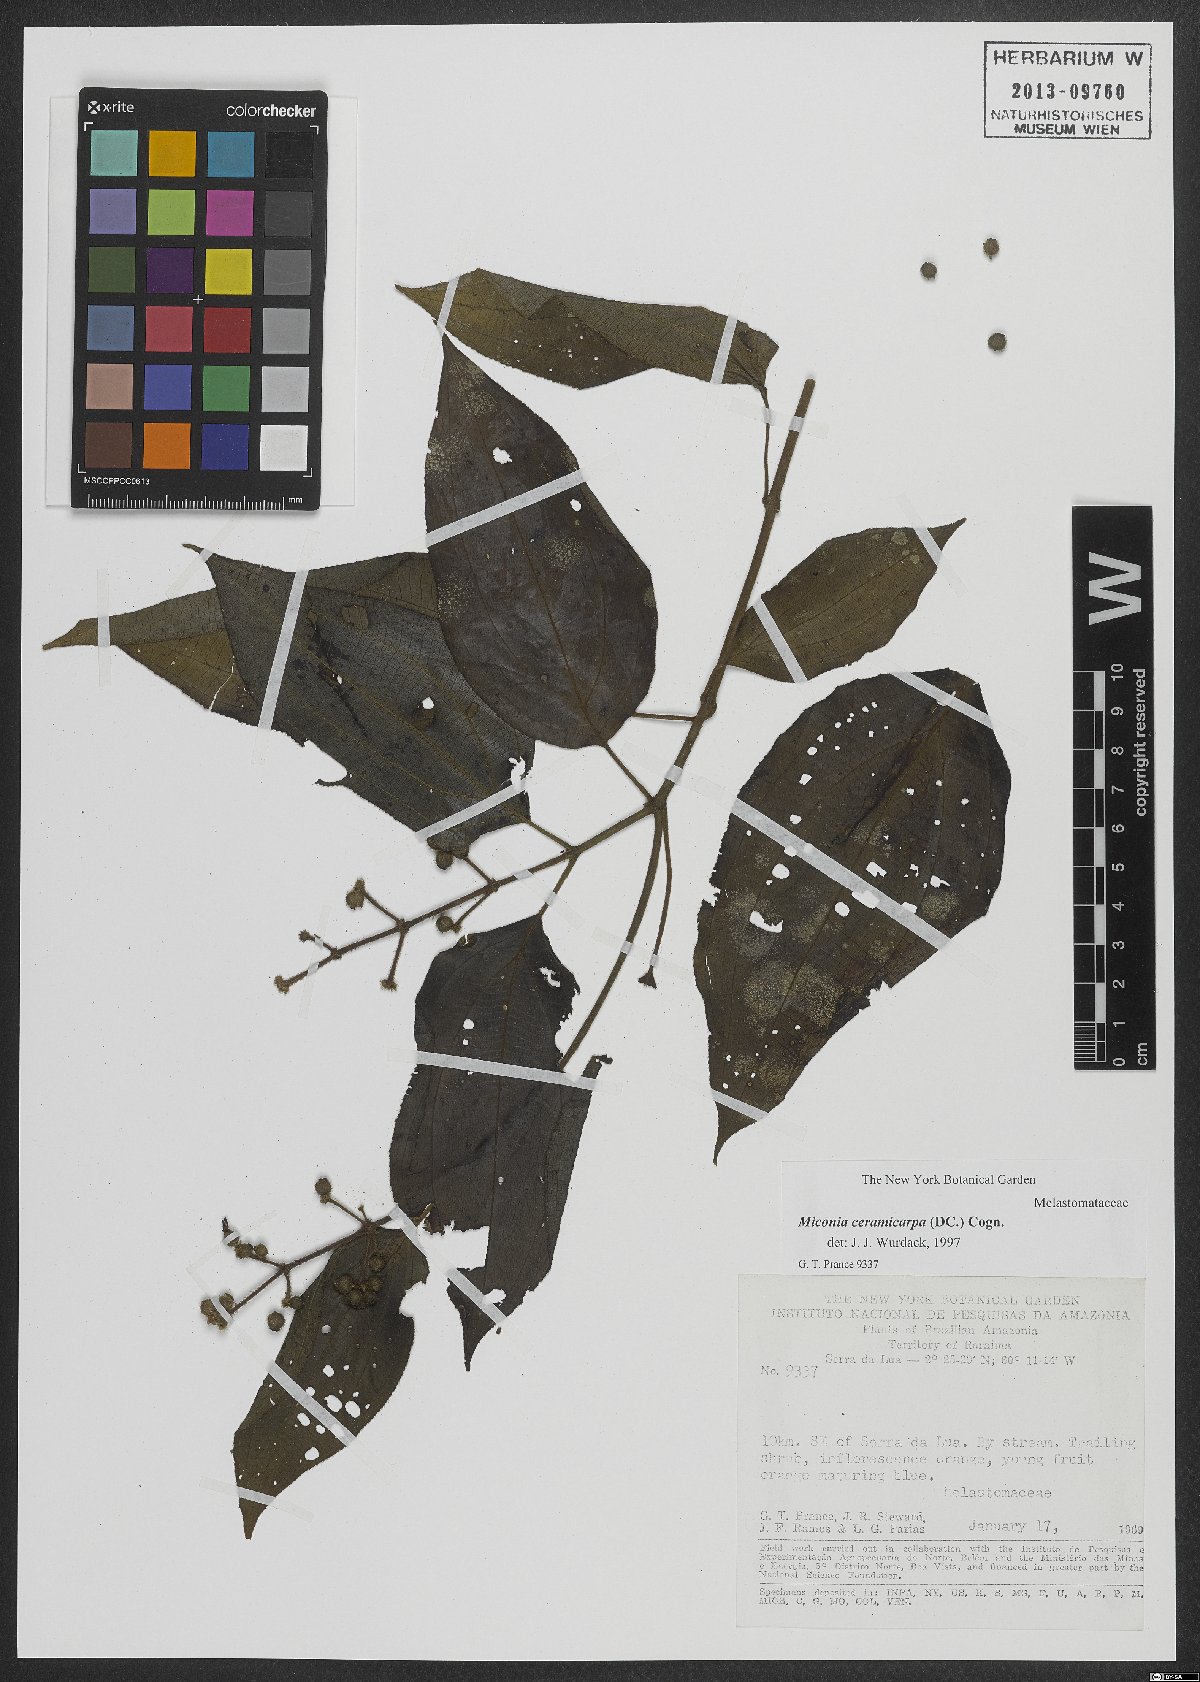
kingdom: Plantae
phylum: Tracheophyta
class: Magnoliopsida
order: Myrtales
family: Melastomataceae
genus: Miconia
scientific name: Miconia ceramicarpa
